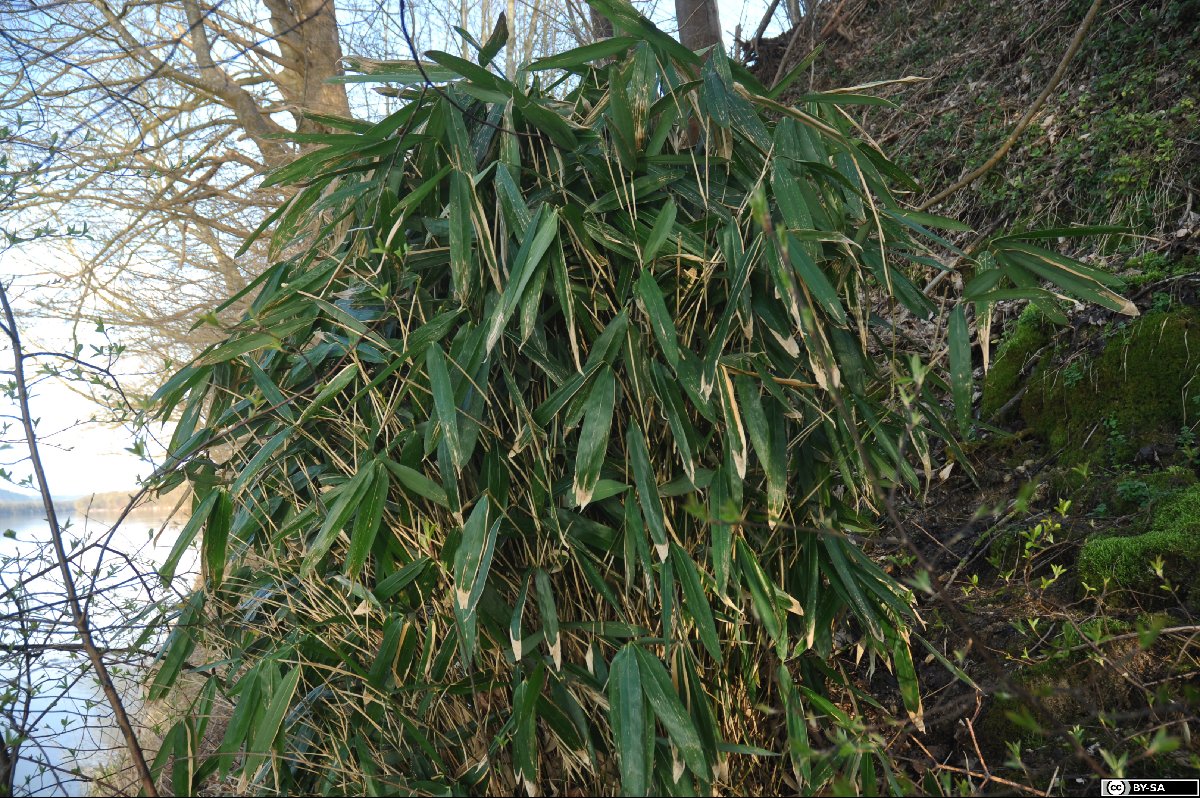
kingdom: Plantae
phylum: Tracheophyta
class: Liliopsida
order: Poales
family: Poaceae
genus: Pseudosasa
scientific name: Pseudosasa japonica
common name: Arrow bamboo
